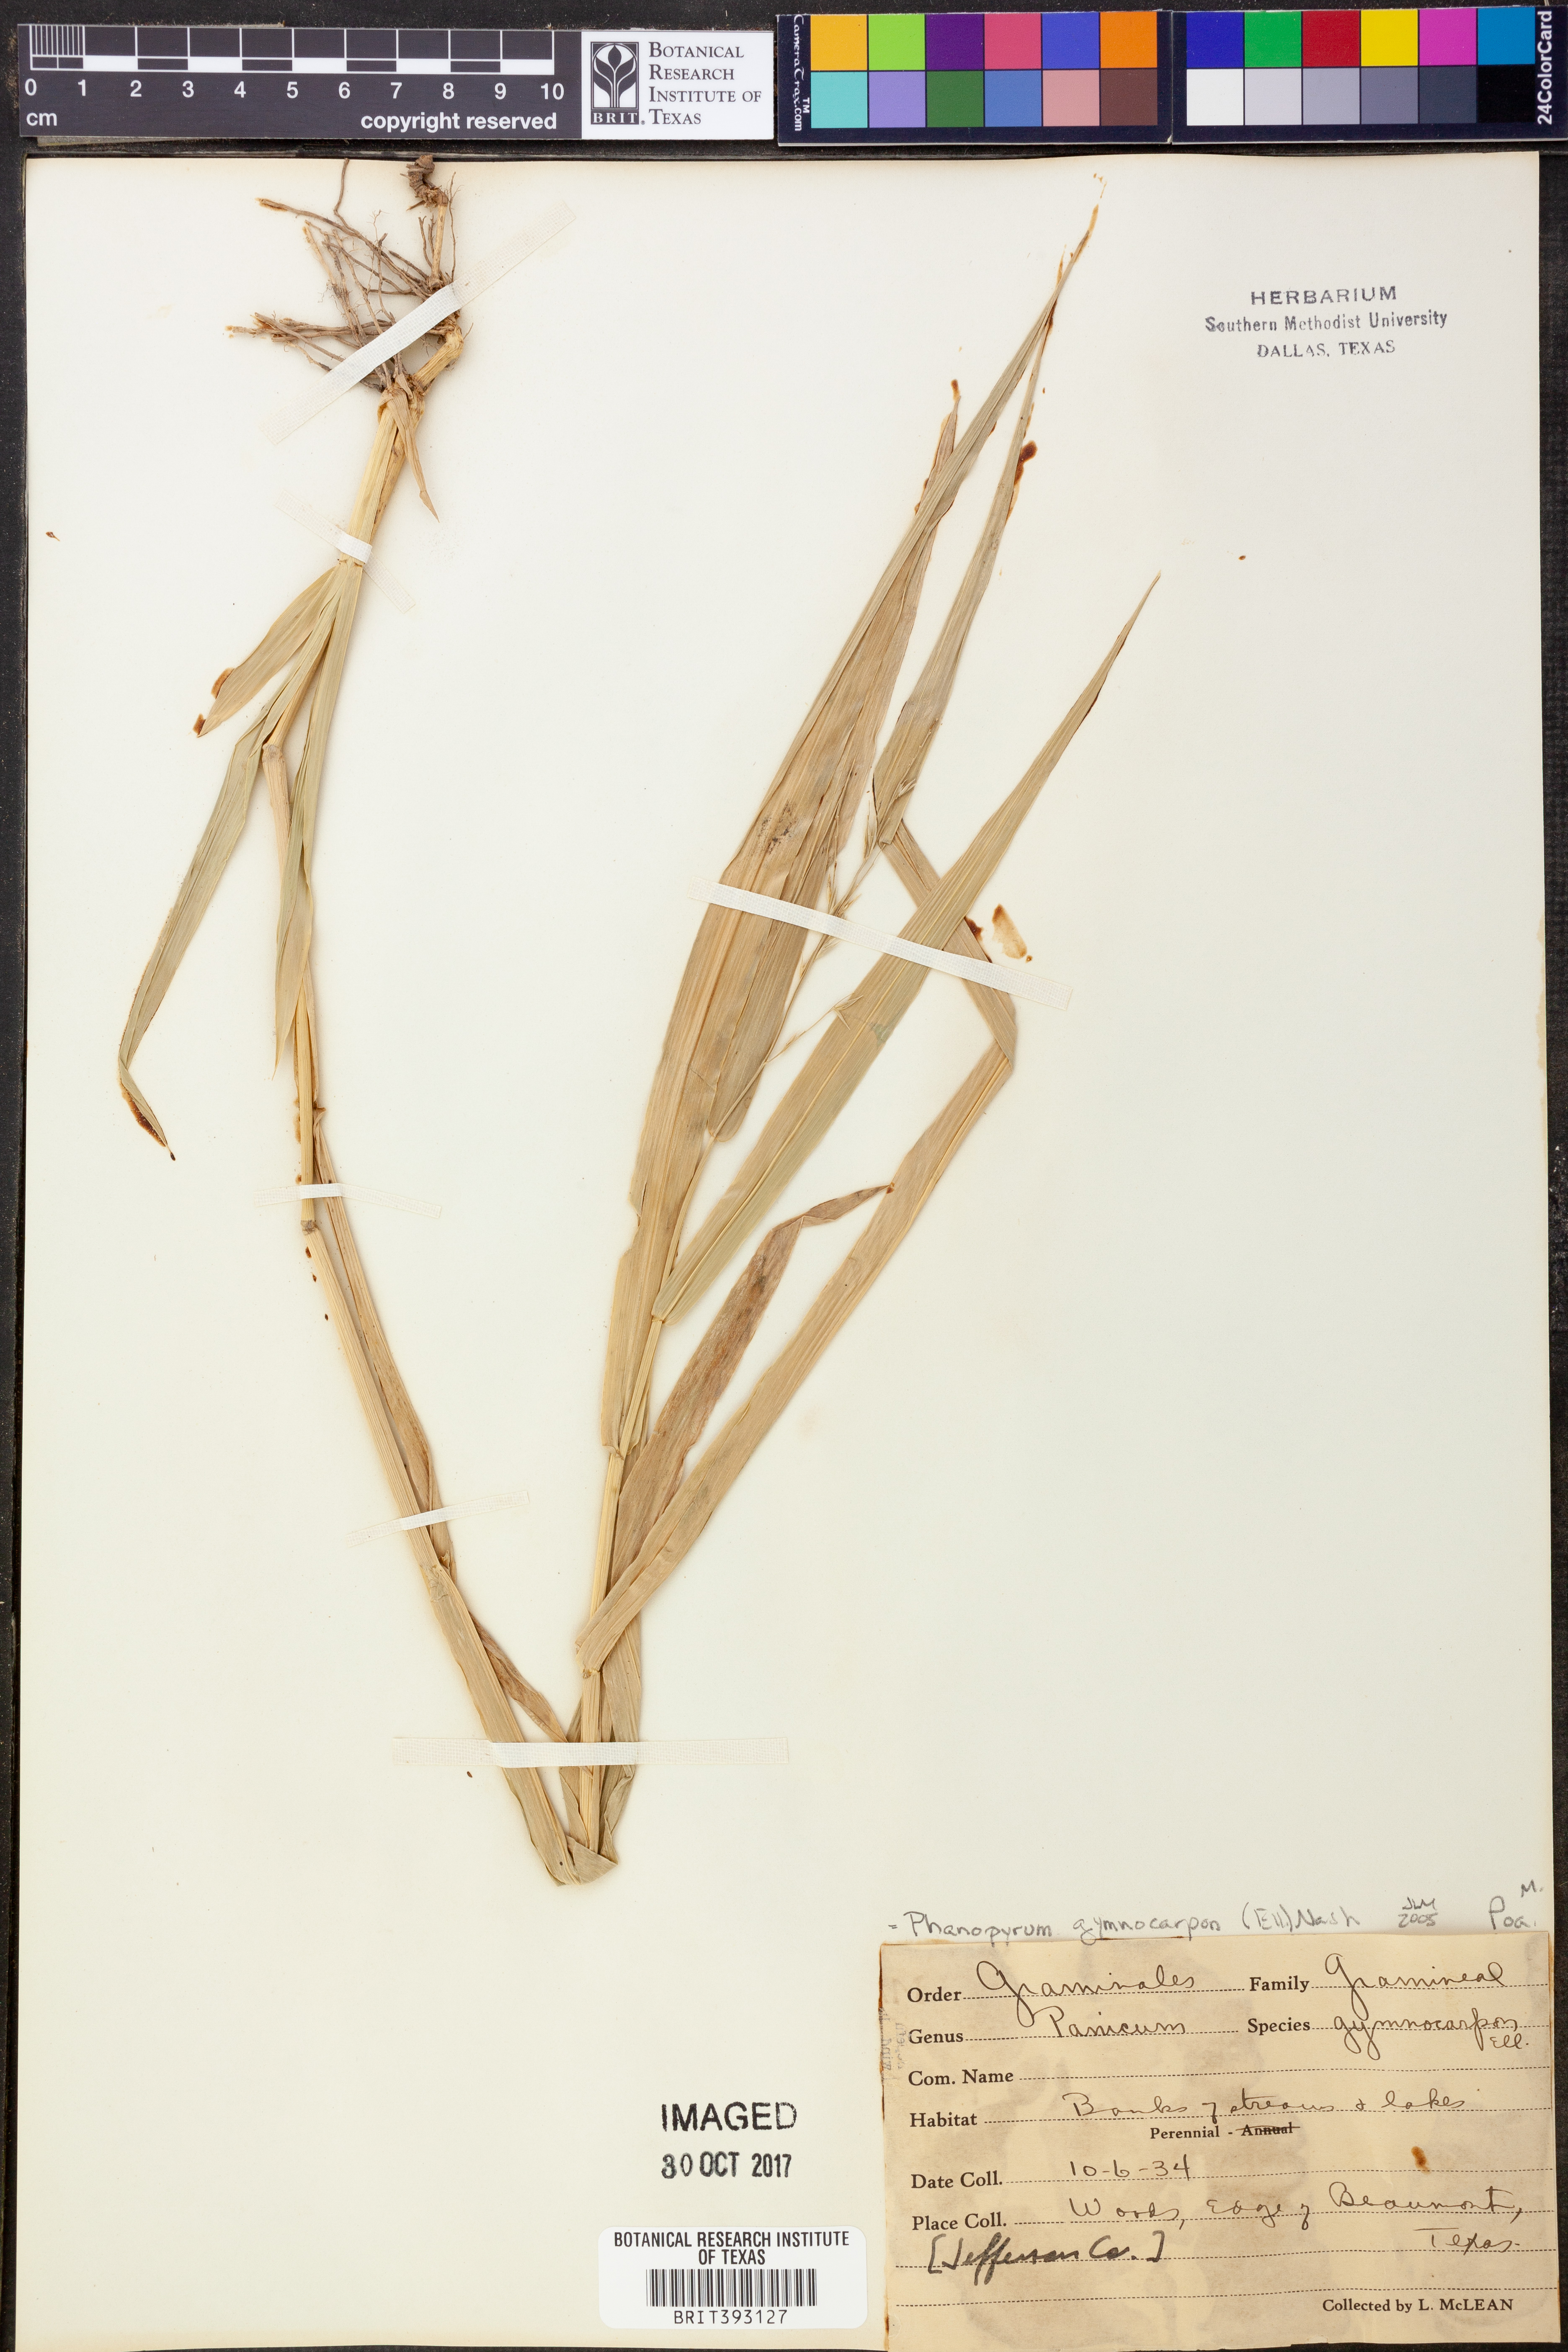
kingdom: Plantae
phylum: Tracheophyta
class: Liliopsida
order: Poales
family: Poaceae
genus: Panicum
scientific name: Panicum gymnocarpon
